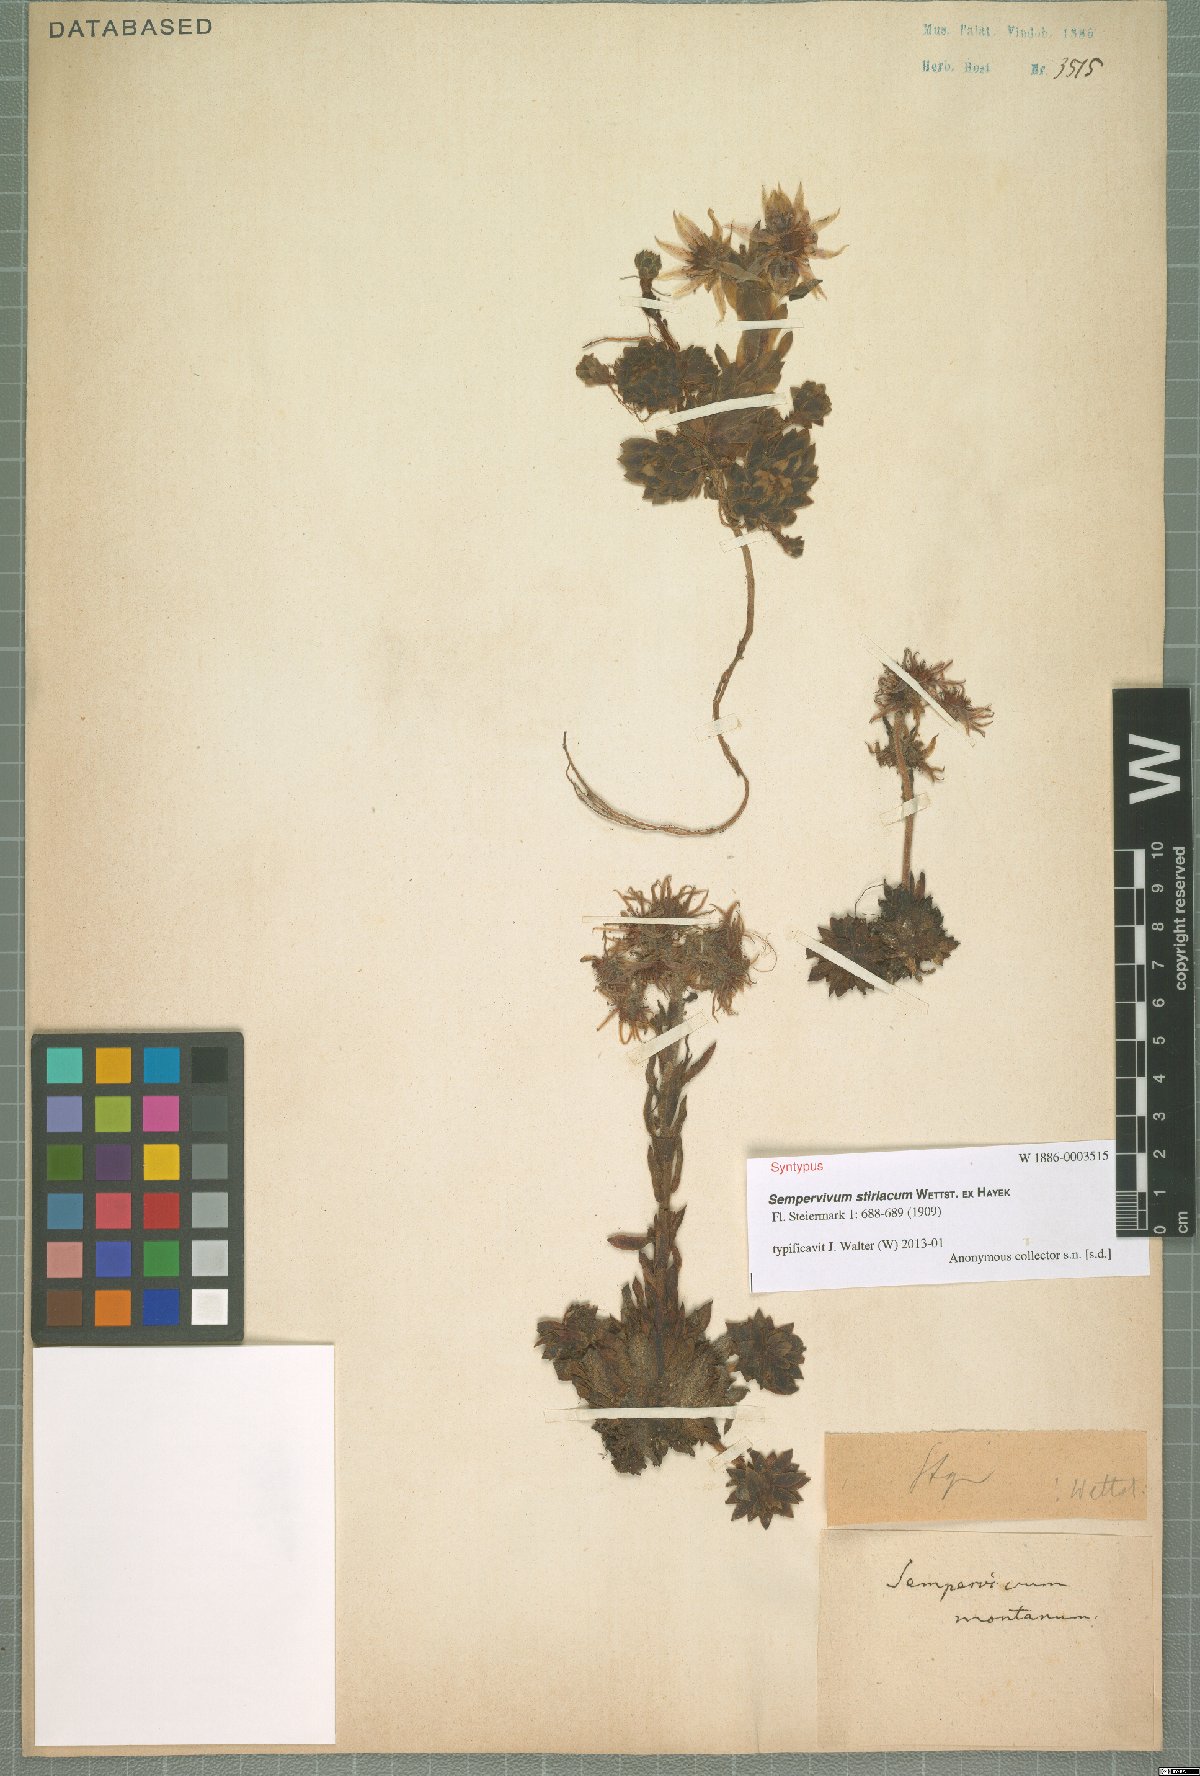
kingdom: Plantae
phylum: Tracheophyta
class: Magnoliopsida
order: Saxifragales
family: Crassulaceae
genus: Sempervivum
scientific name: Sempervivum montanum
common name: Mountain house-leek
